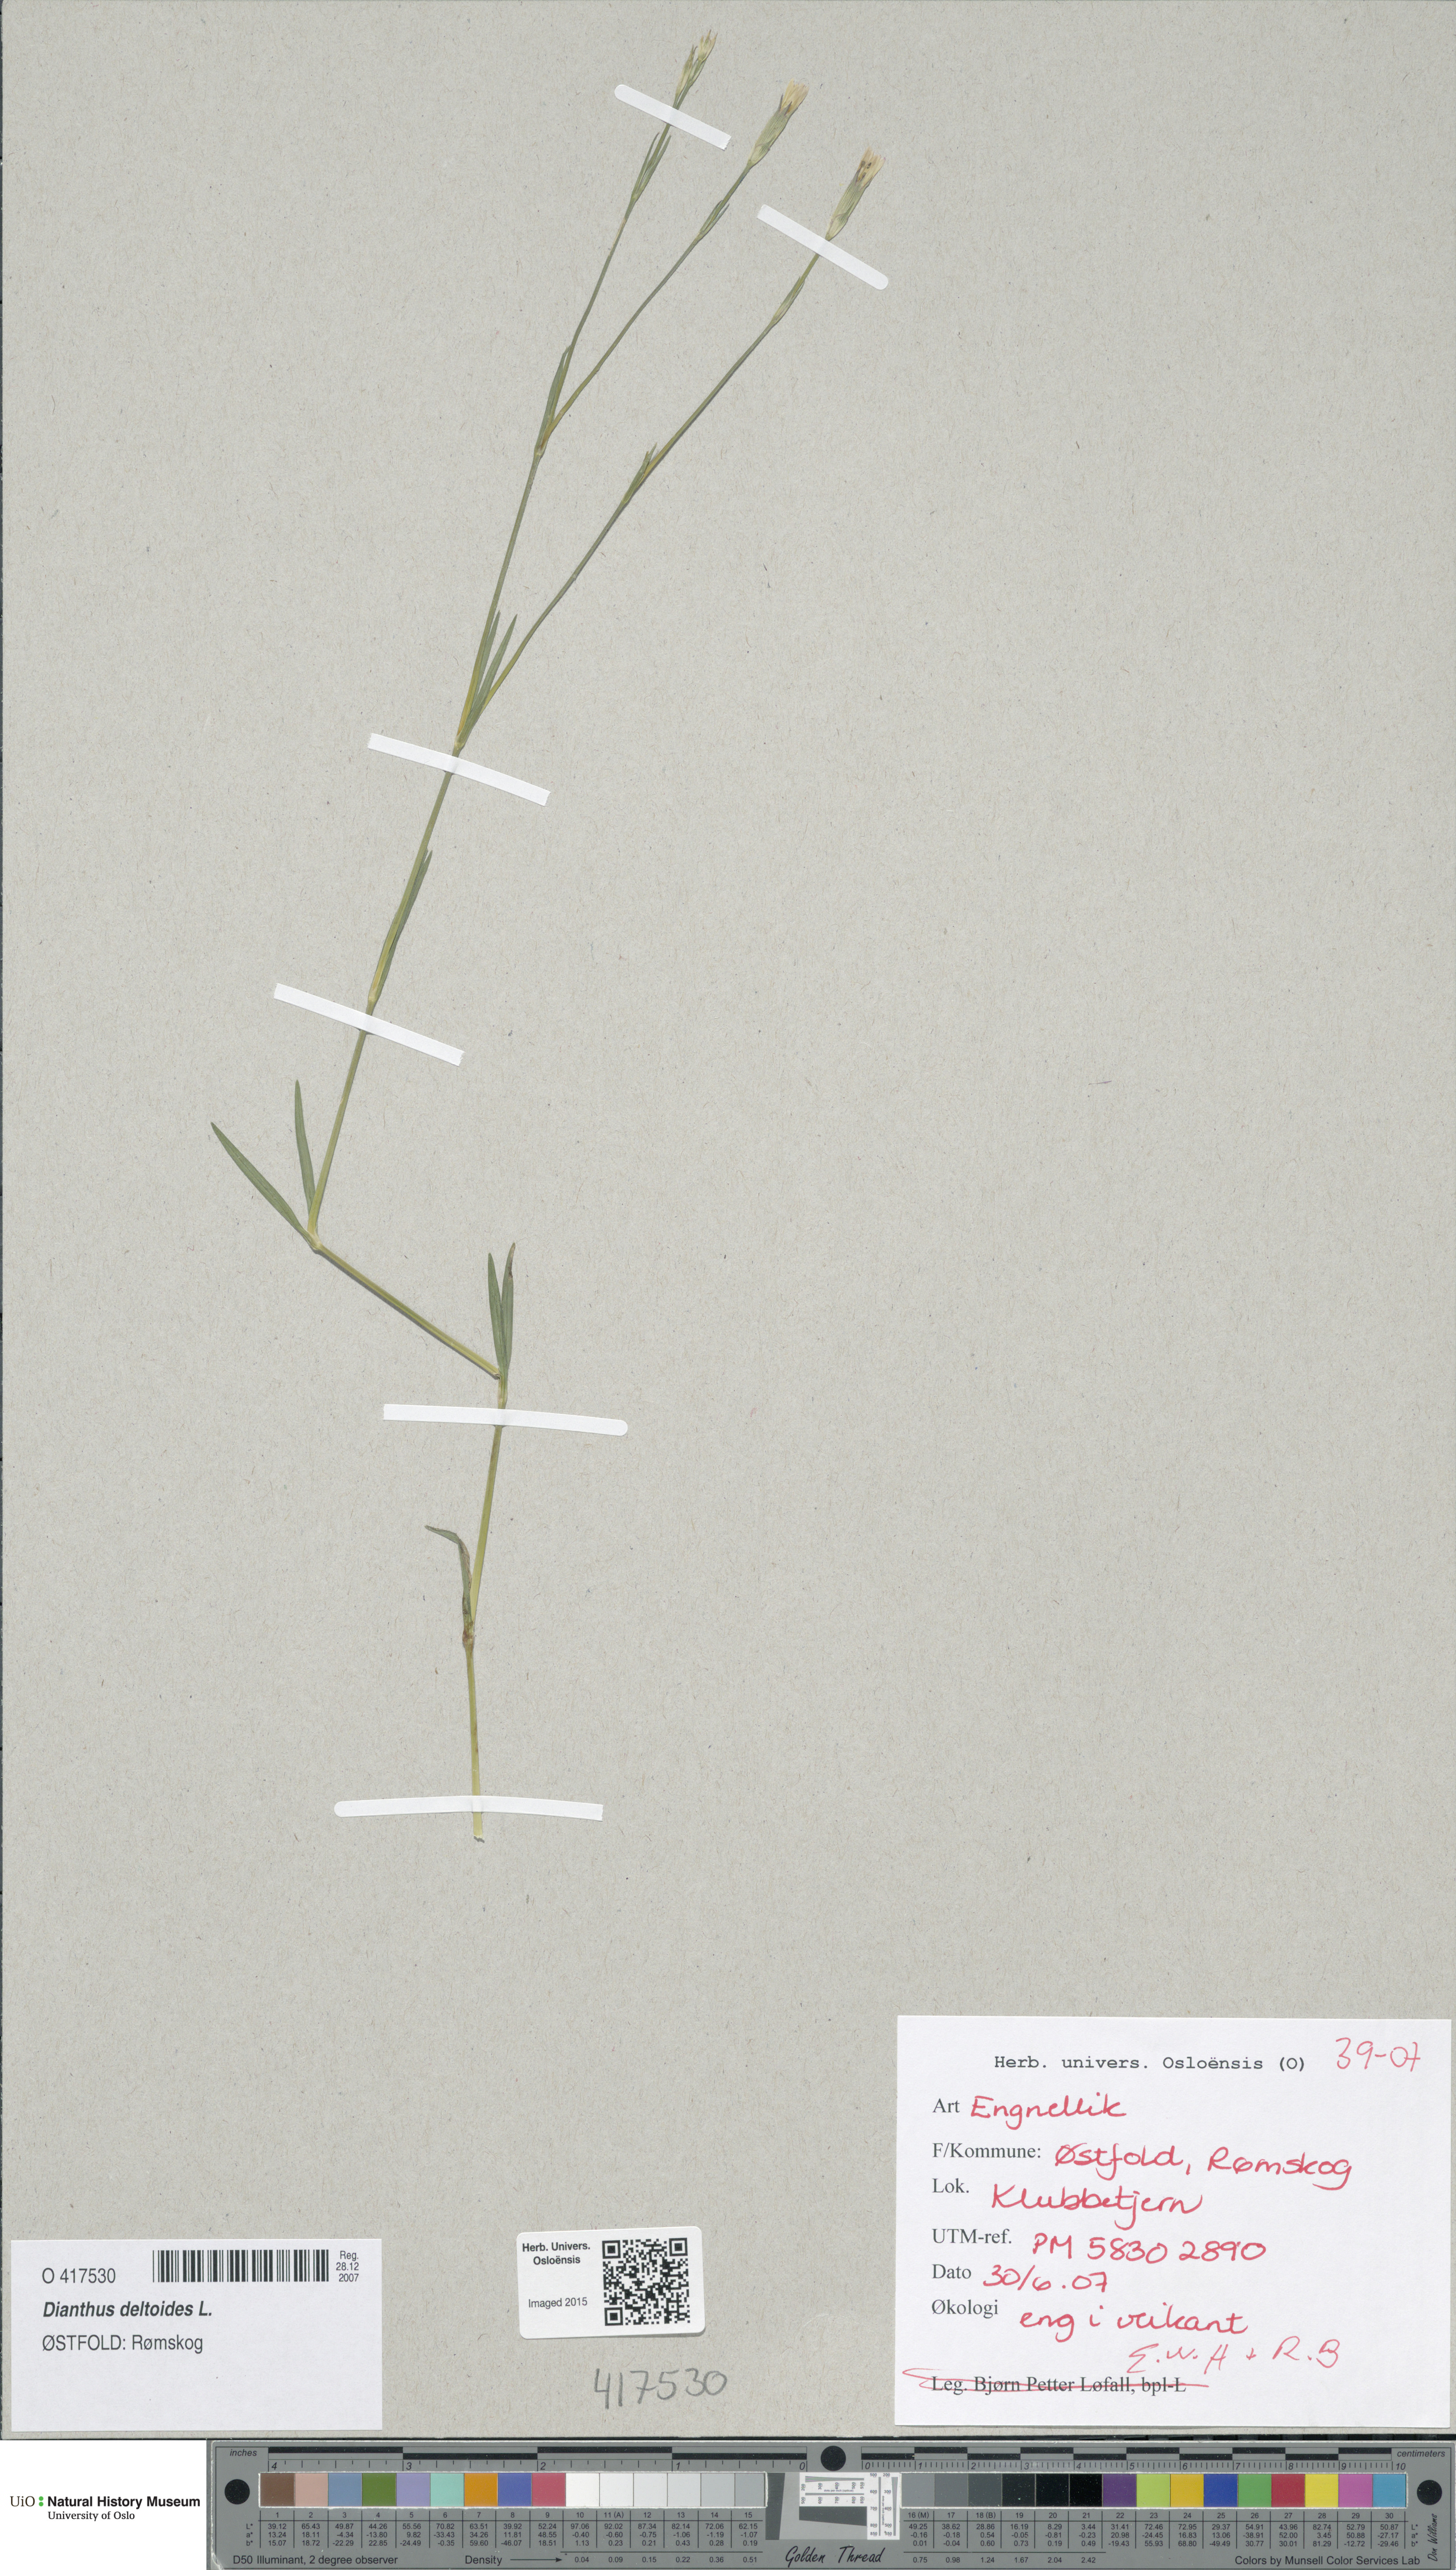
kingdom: Plantae
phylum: Tracheophyta
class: Magnoliopsida
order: Caryophyllales
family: Caryophyllaceae
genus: Dianthus
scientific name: Dianthus deltoides
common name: Maiden pink
